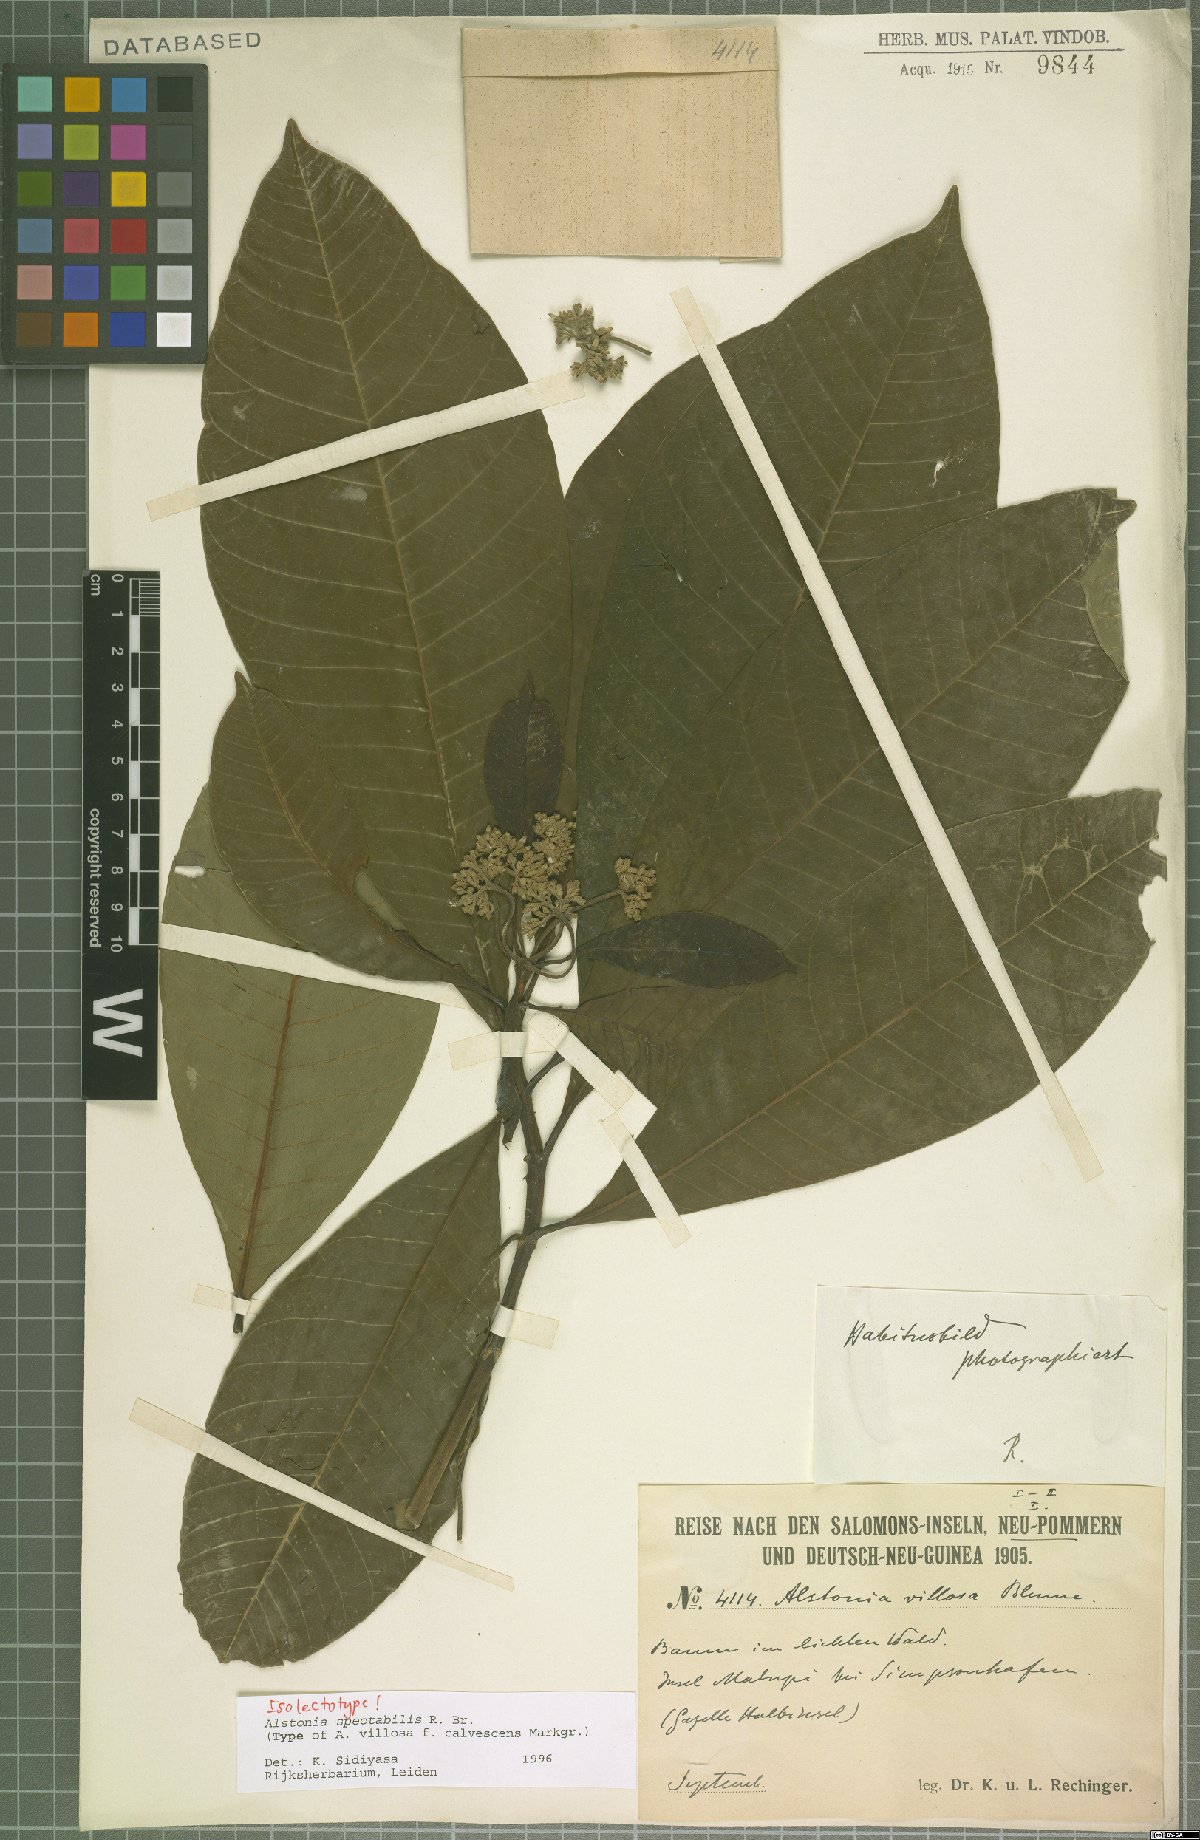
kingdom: Plantae
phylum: Tracheophyta
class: Magnoliopsida
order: Gentianales
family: Apocynaceae
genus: Alstonia
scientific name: Alstonia spectabilis
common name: Milky yellowwood
